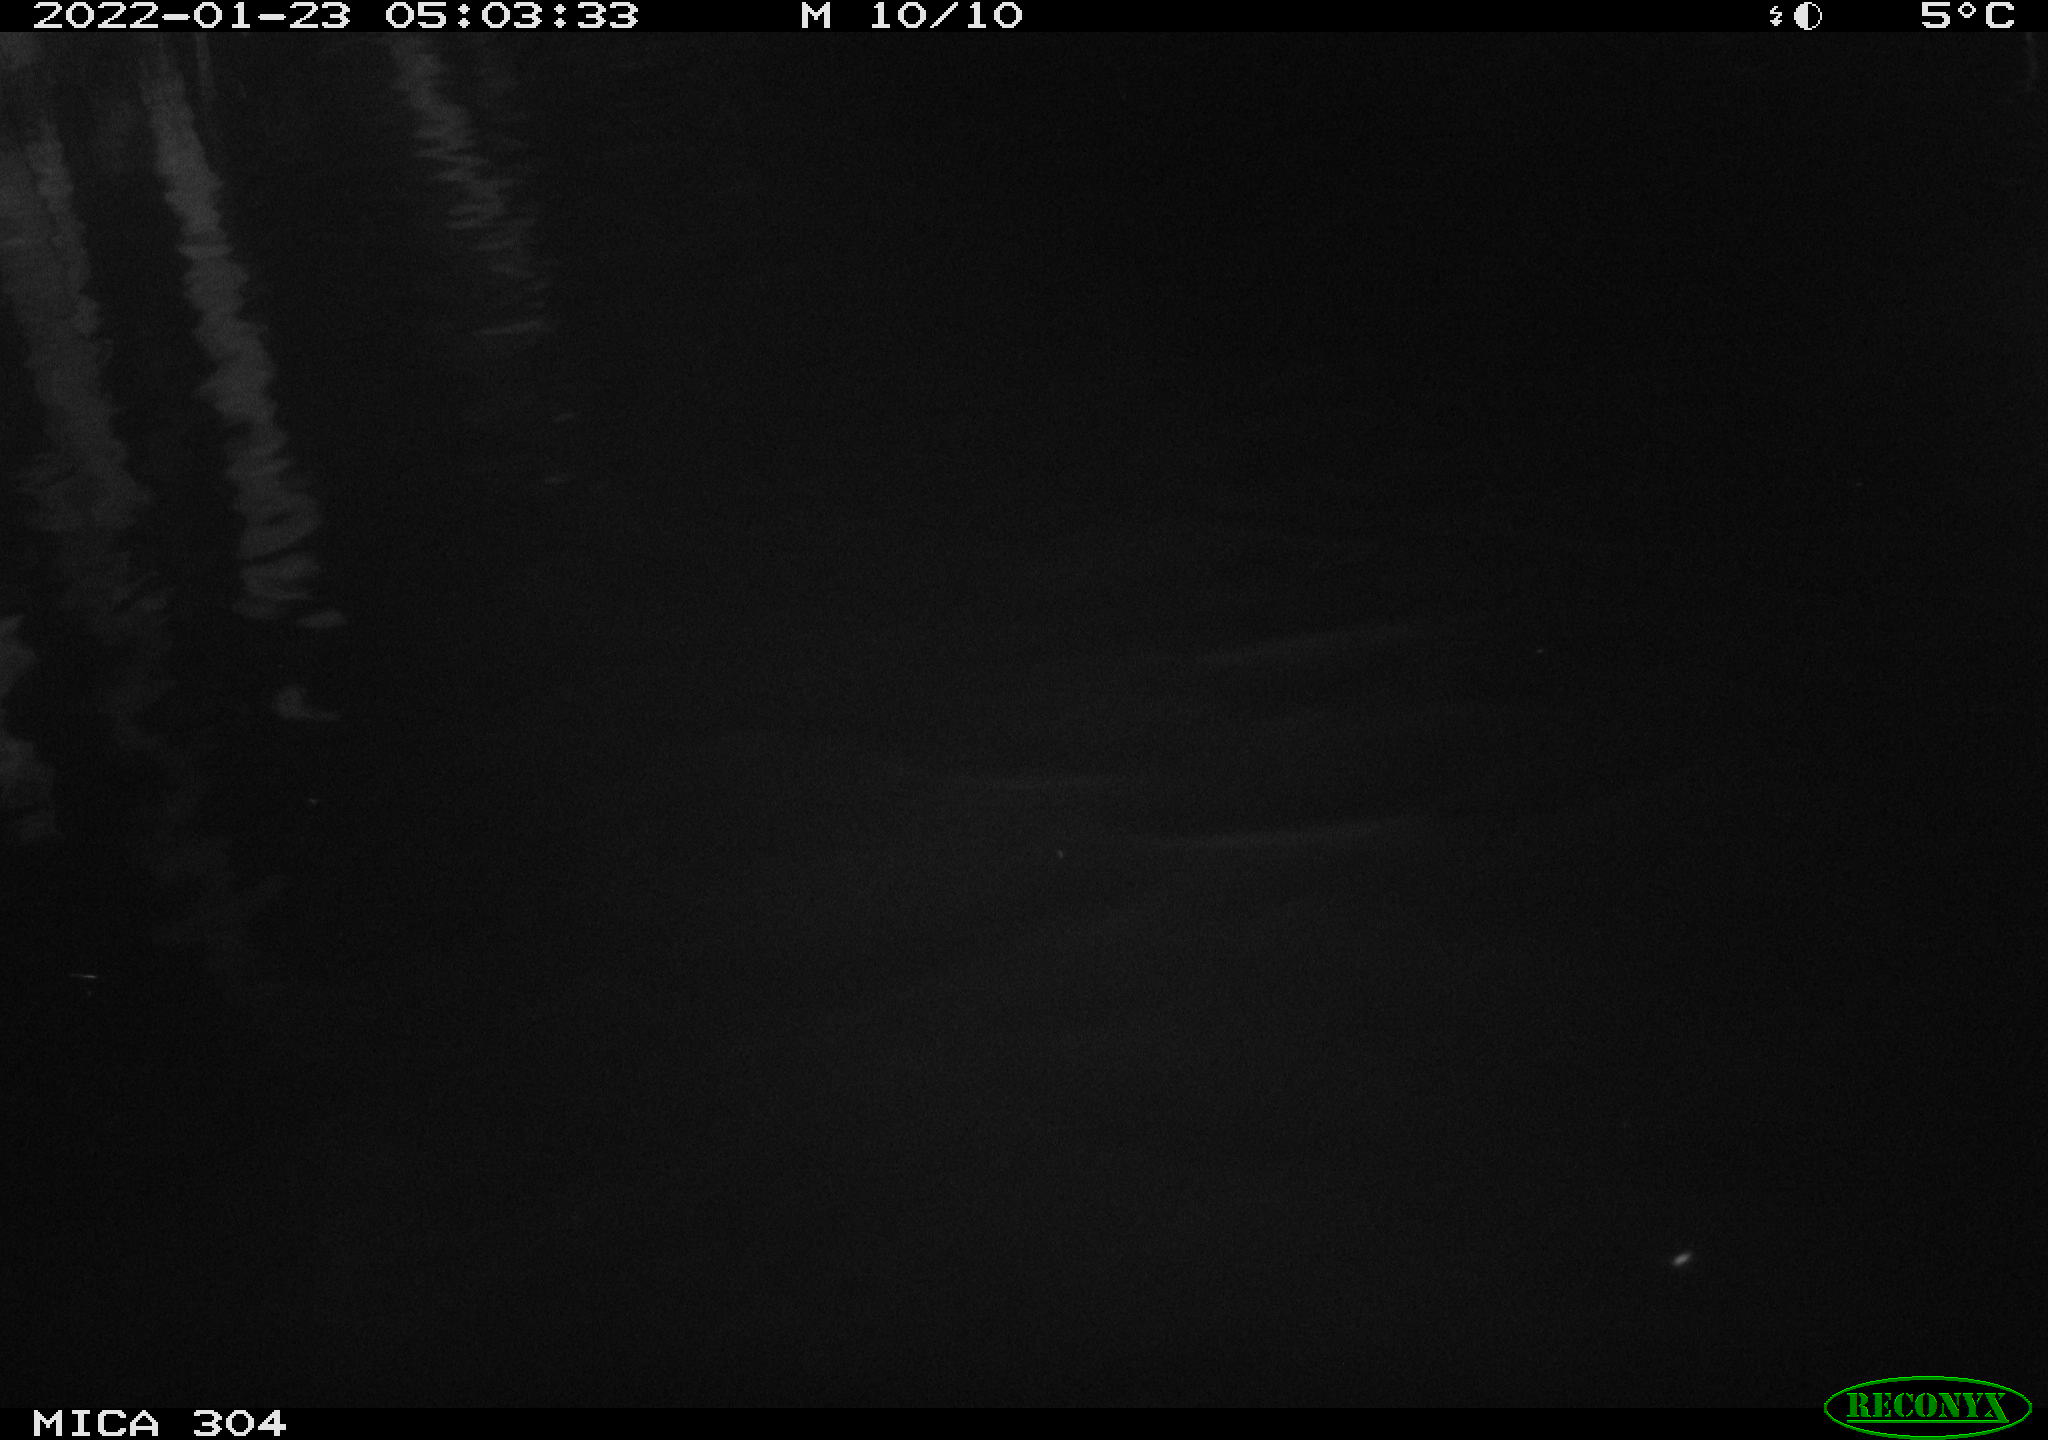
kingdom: Animalia
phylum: Chordata
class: Aves
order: Anseriformes
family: Anatidae
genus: Anas
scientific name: Anas
